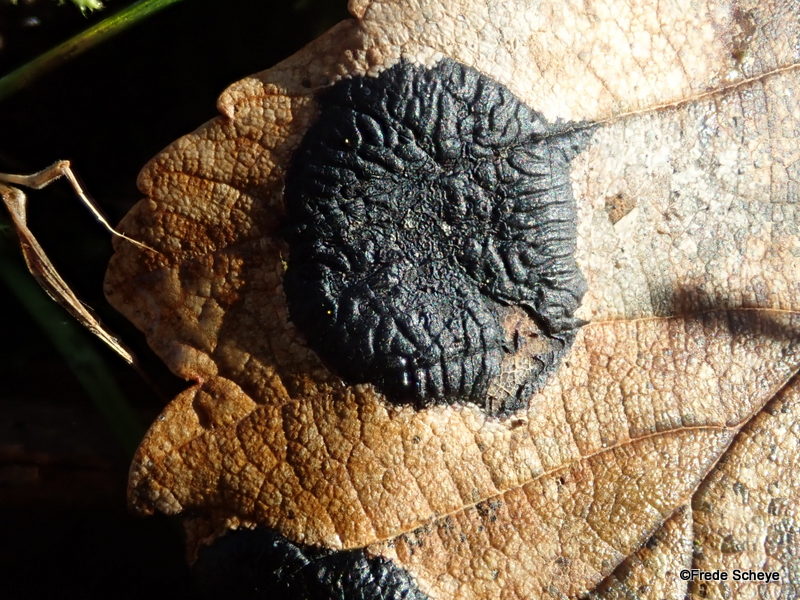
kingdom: Fungi
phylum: Ascomycota
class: Leotiomycetes
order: Rhytismatales
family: Rhytismataceae
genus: Rhytisma
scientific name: Rhytisma acerinum
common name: ahorn-rynkeplet
